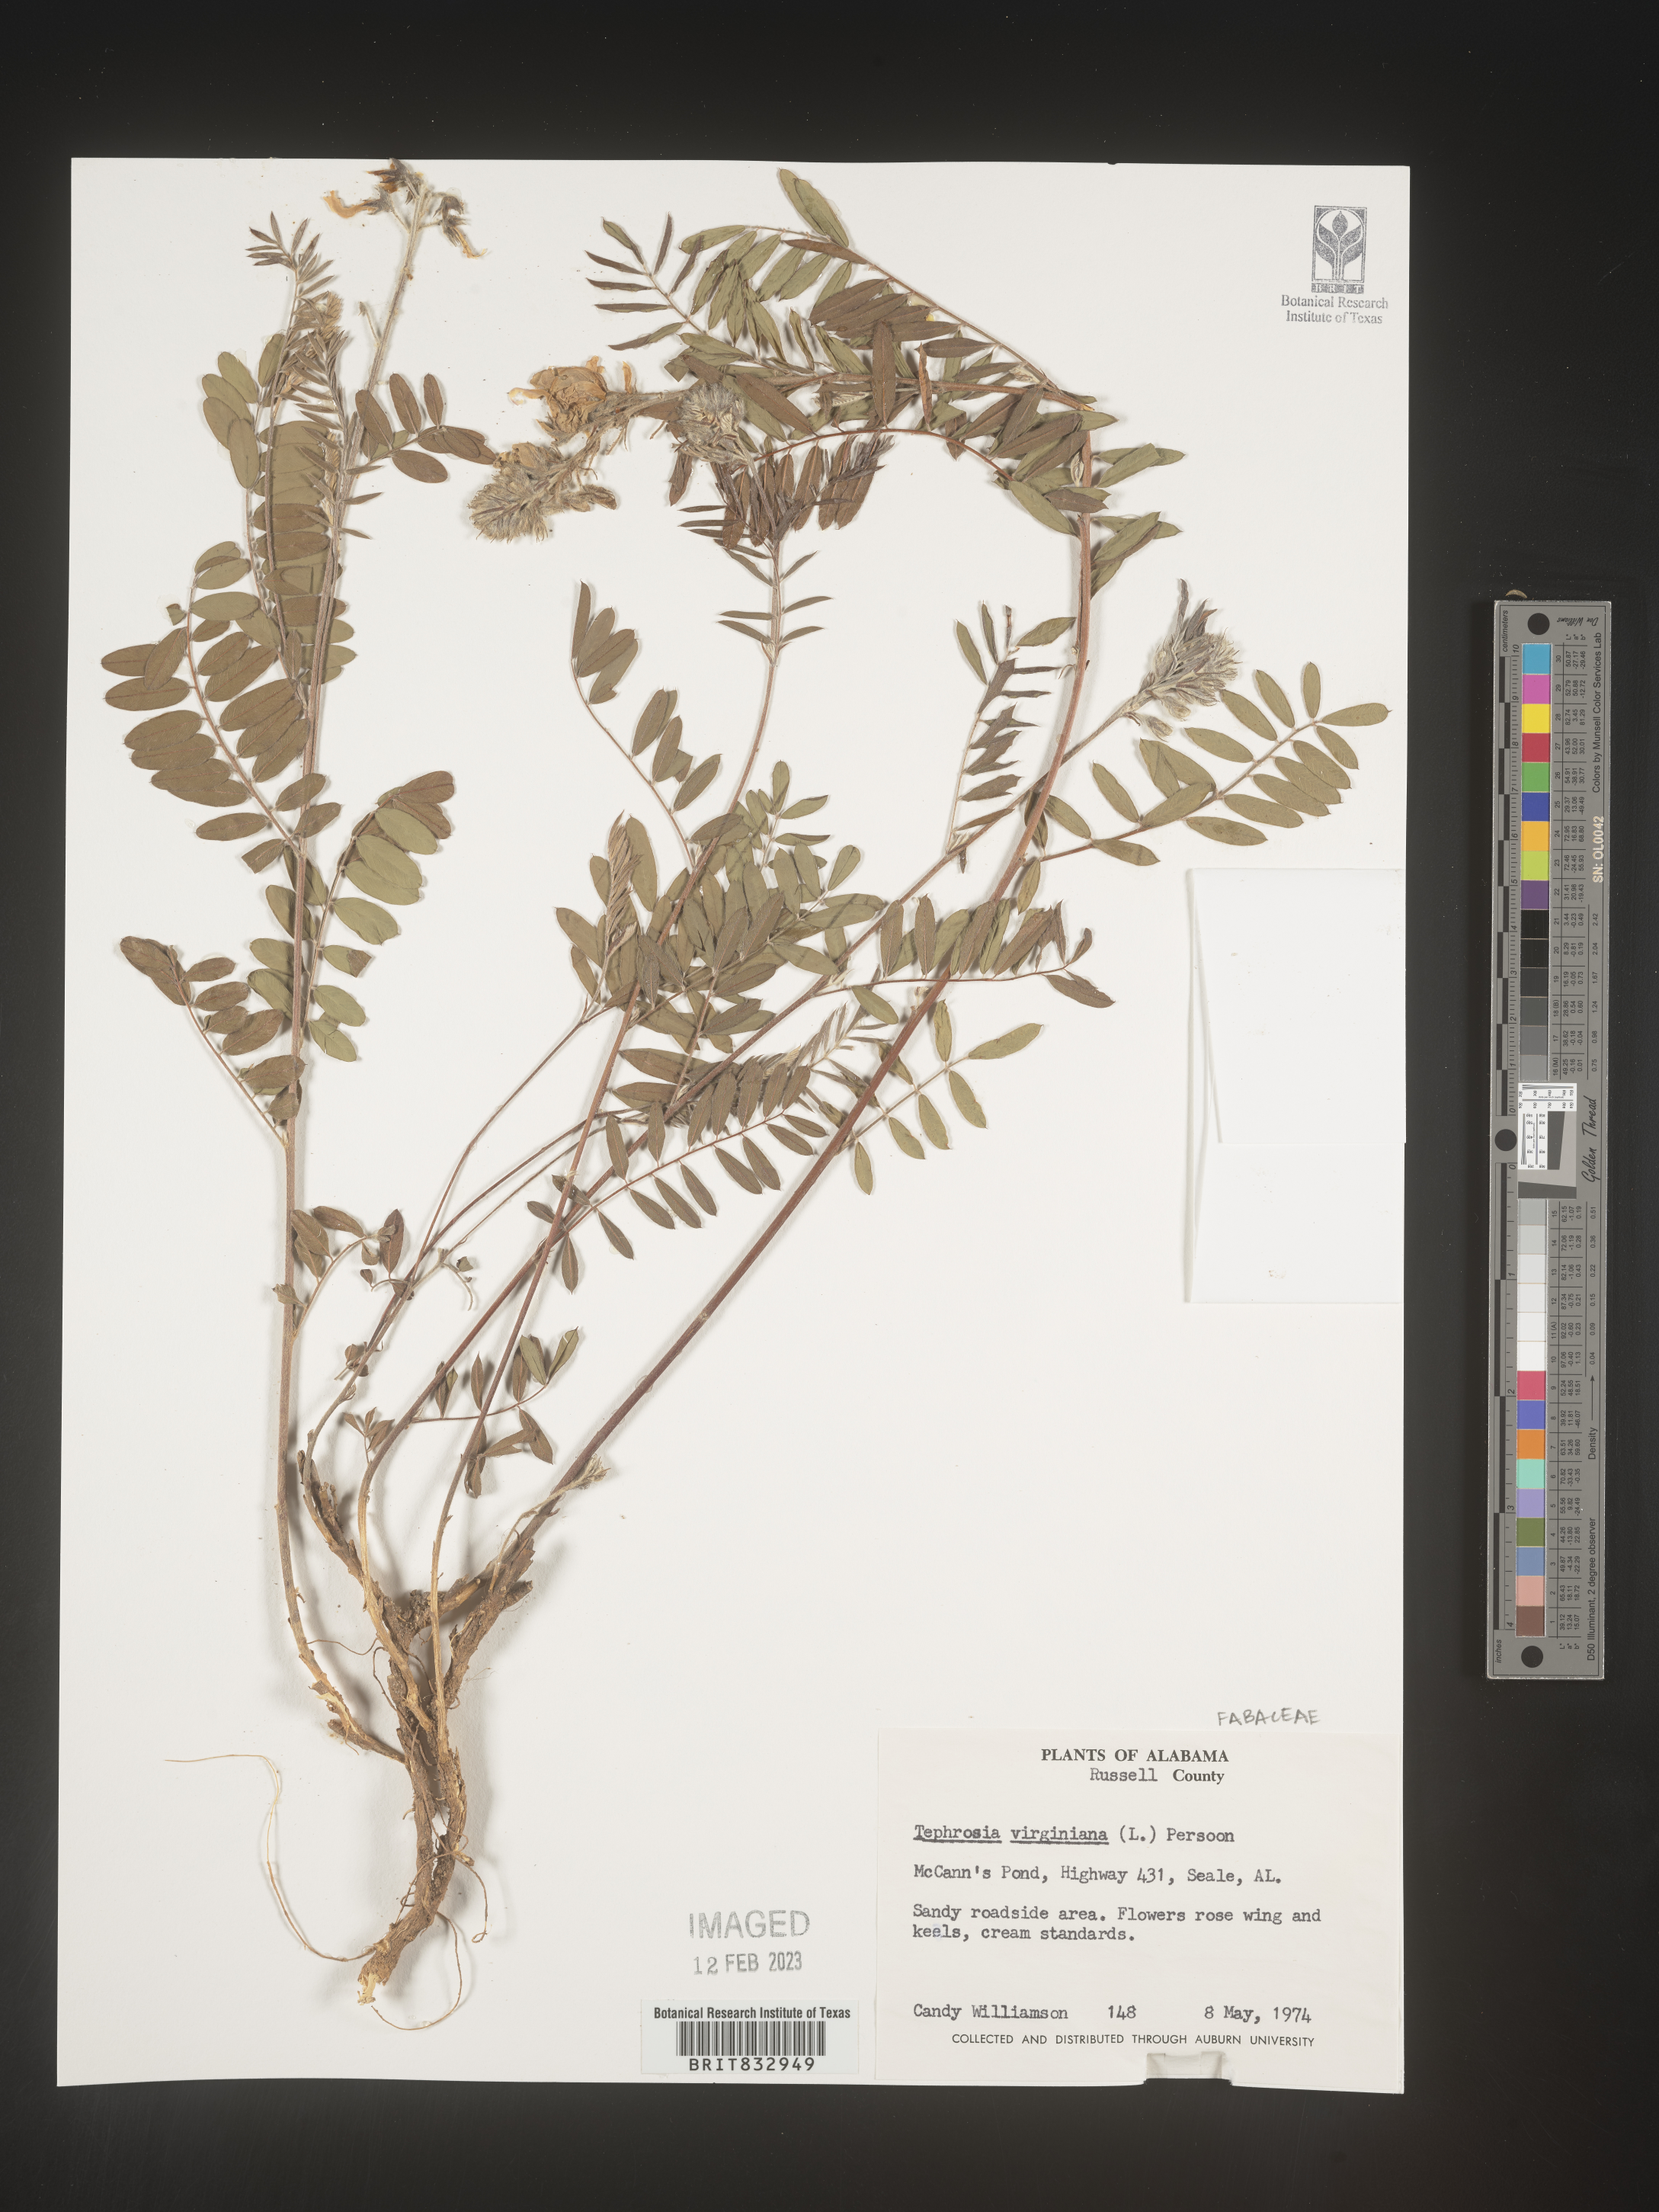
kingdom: Plantae
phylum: Tracheophyta
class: Magnoliopsida
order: Fabales
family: Fabaceae
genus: Tephrosia
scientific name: Tephrosia virginiana
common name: Rabbit-pea
